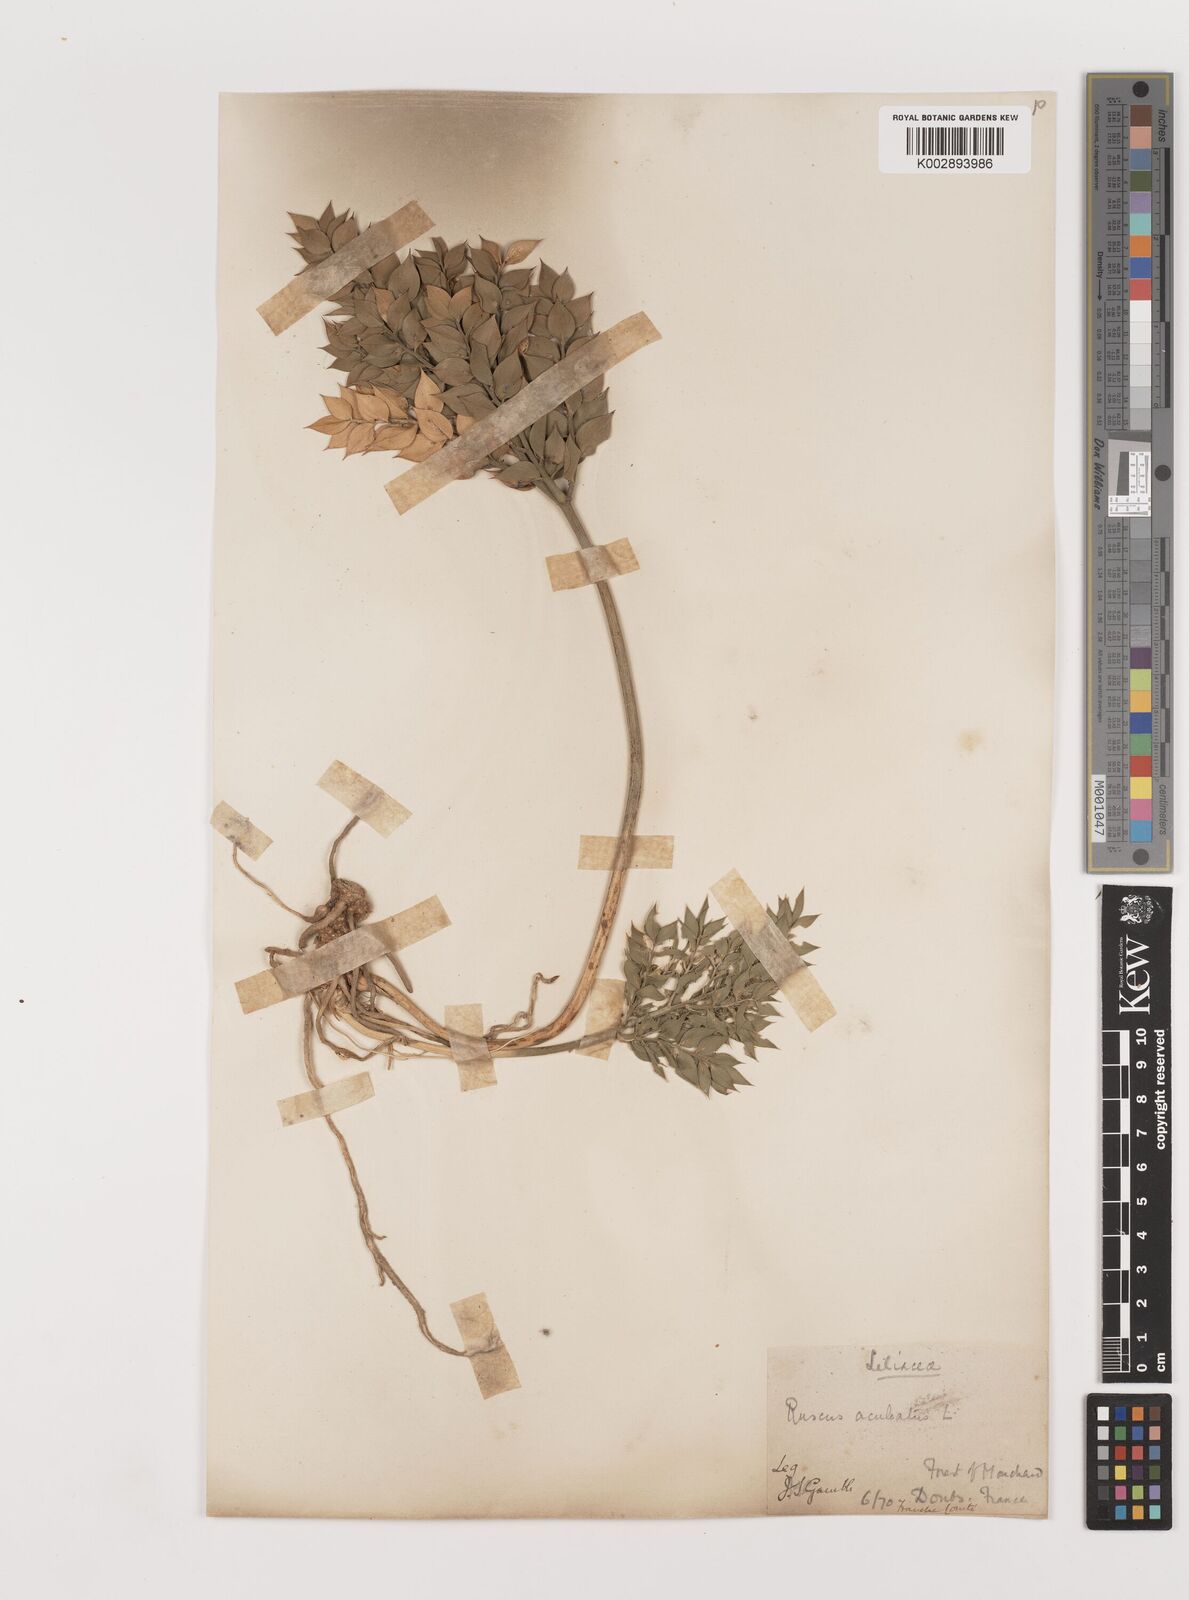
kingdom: Plantae
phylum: Tracheophyta
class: Liliopsida
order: Asparagales
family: Asparagaceae
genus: Ruscus
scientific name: Ruscus aculeatus
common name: Butcher's-broom
